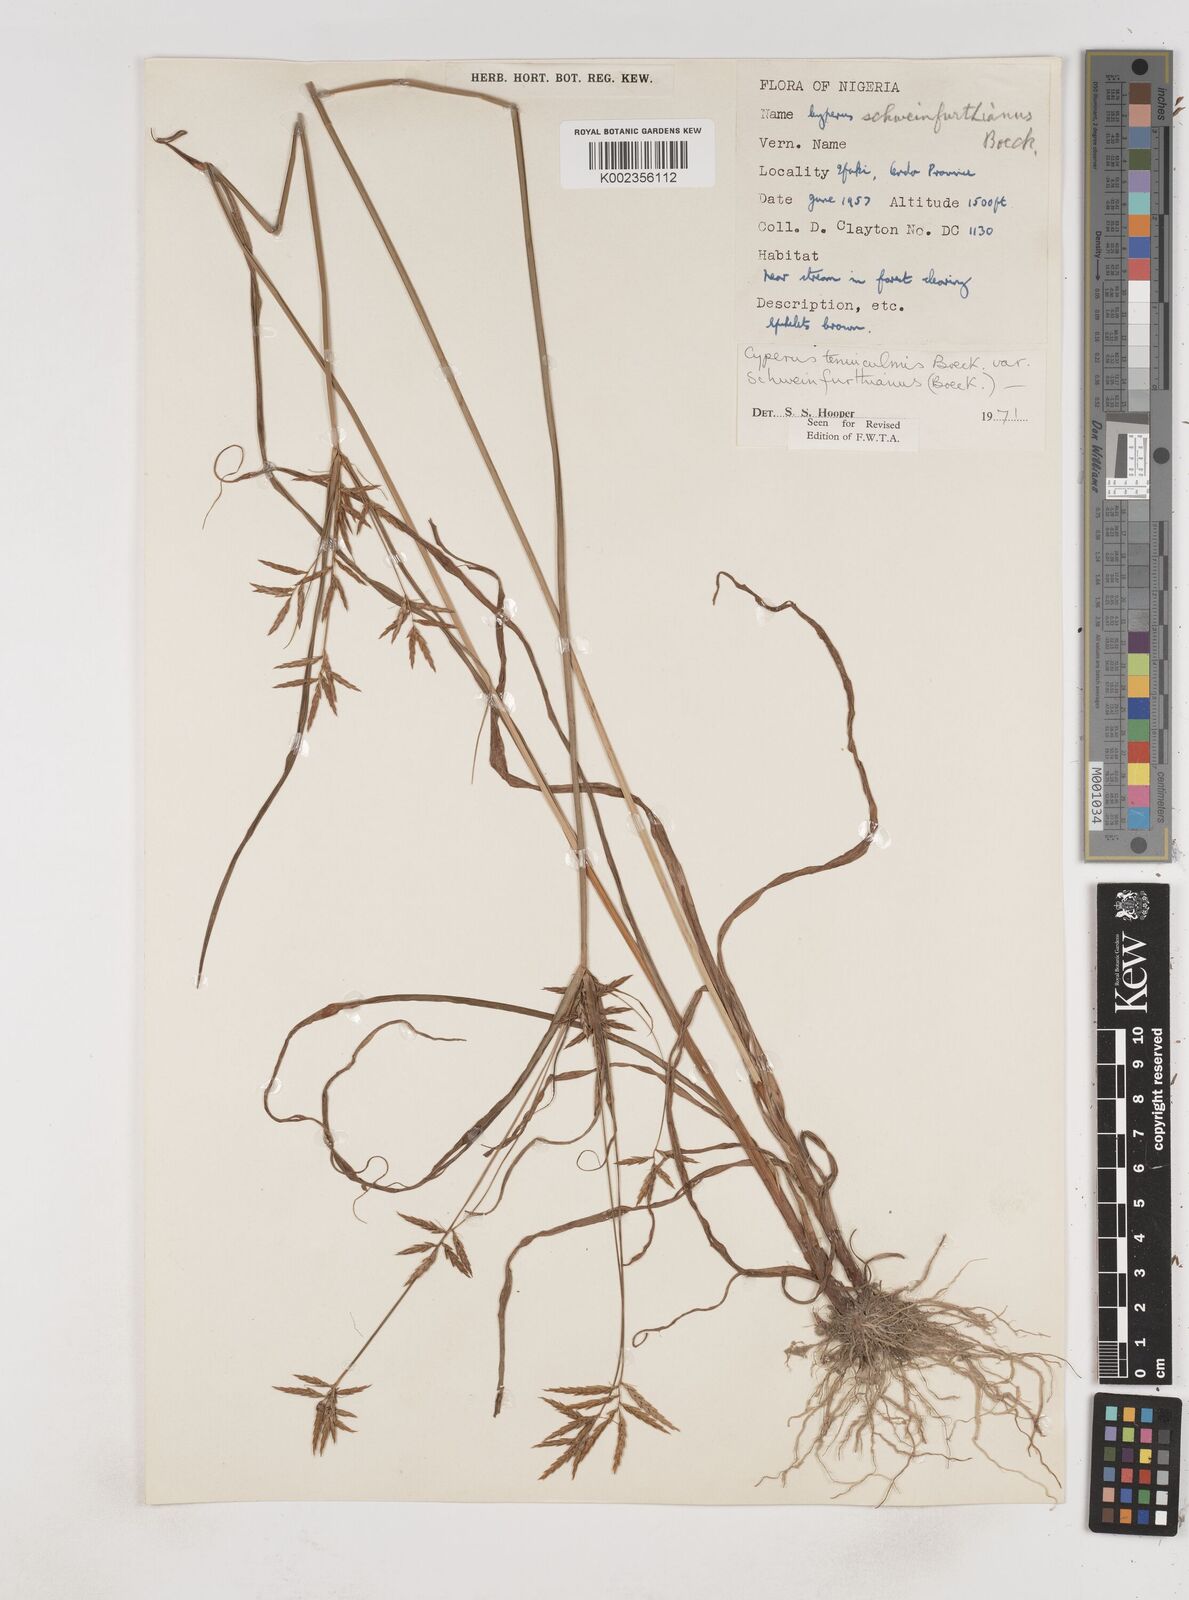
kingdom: Plantae
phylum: Tracheophyta
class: Liliopsida
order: Poales
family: Cyperaceae
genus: Cyperus
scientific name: Cyperus tenuiculmis
